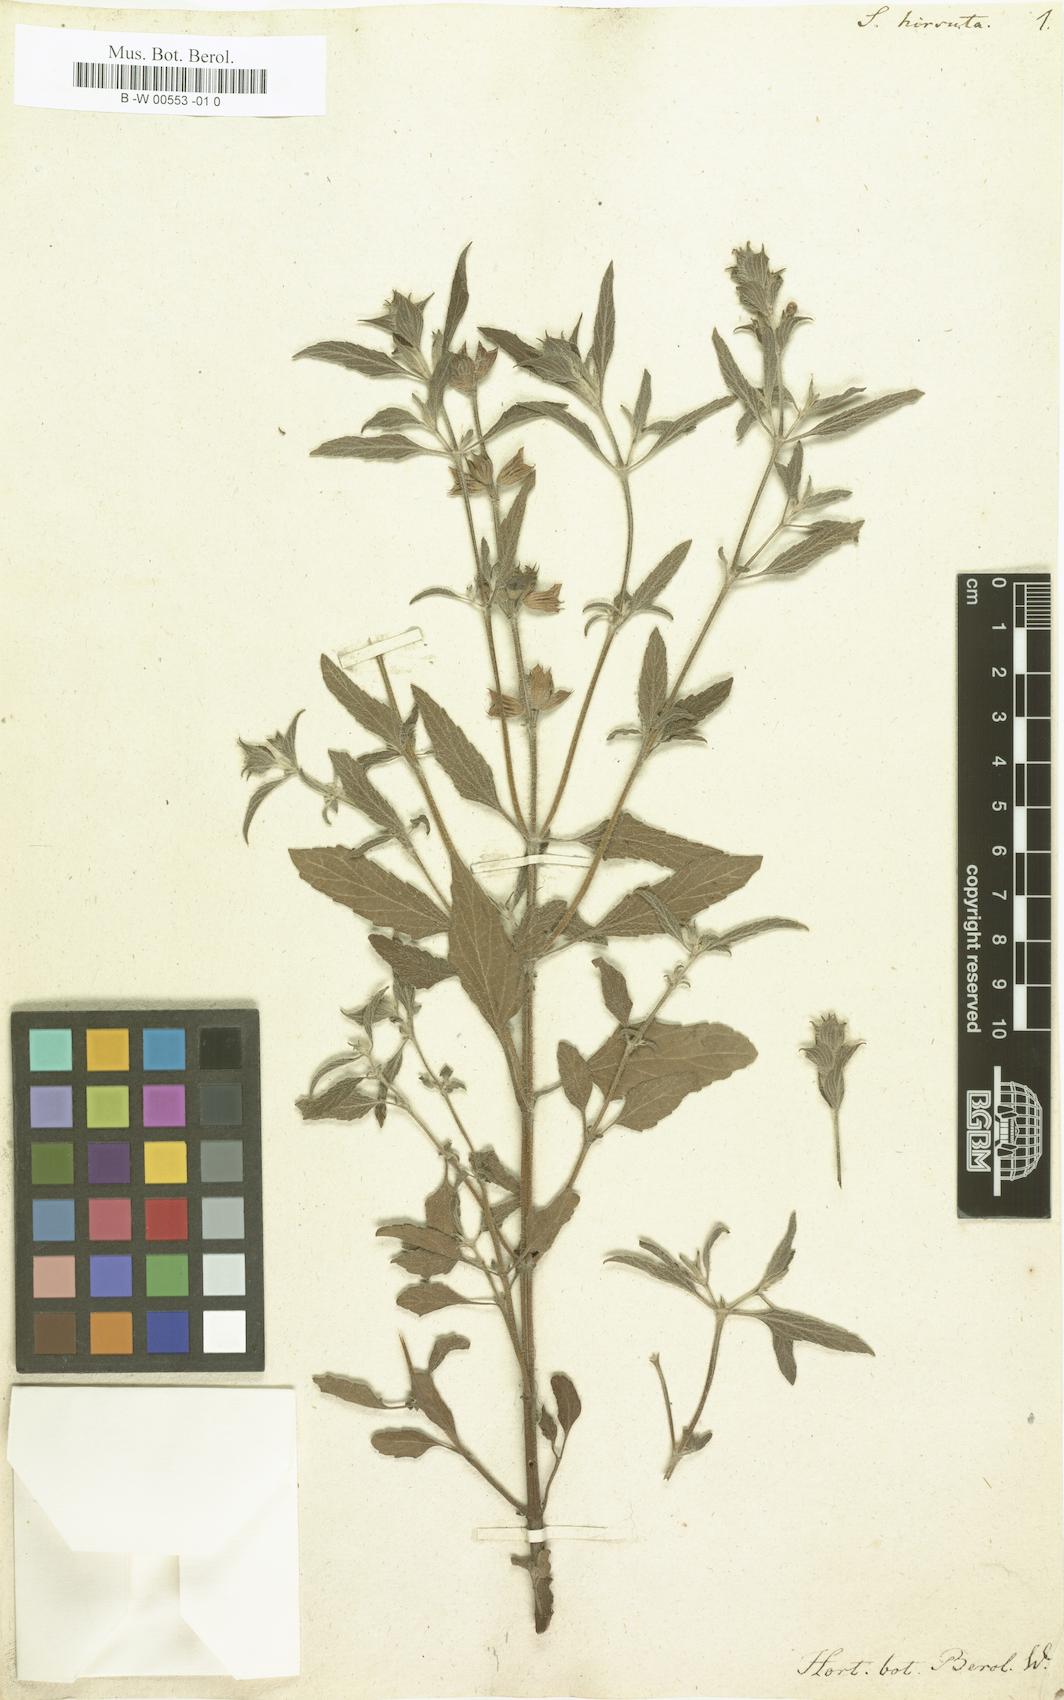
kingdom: Plantae
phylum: Tracheophyta
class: Magnoliopsida
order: Lamiales
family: Lamiaceae
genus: Salvia
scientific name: Salvia hirsuta
